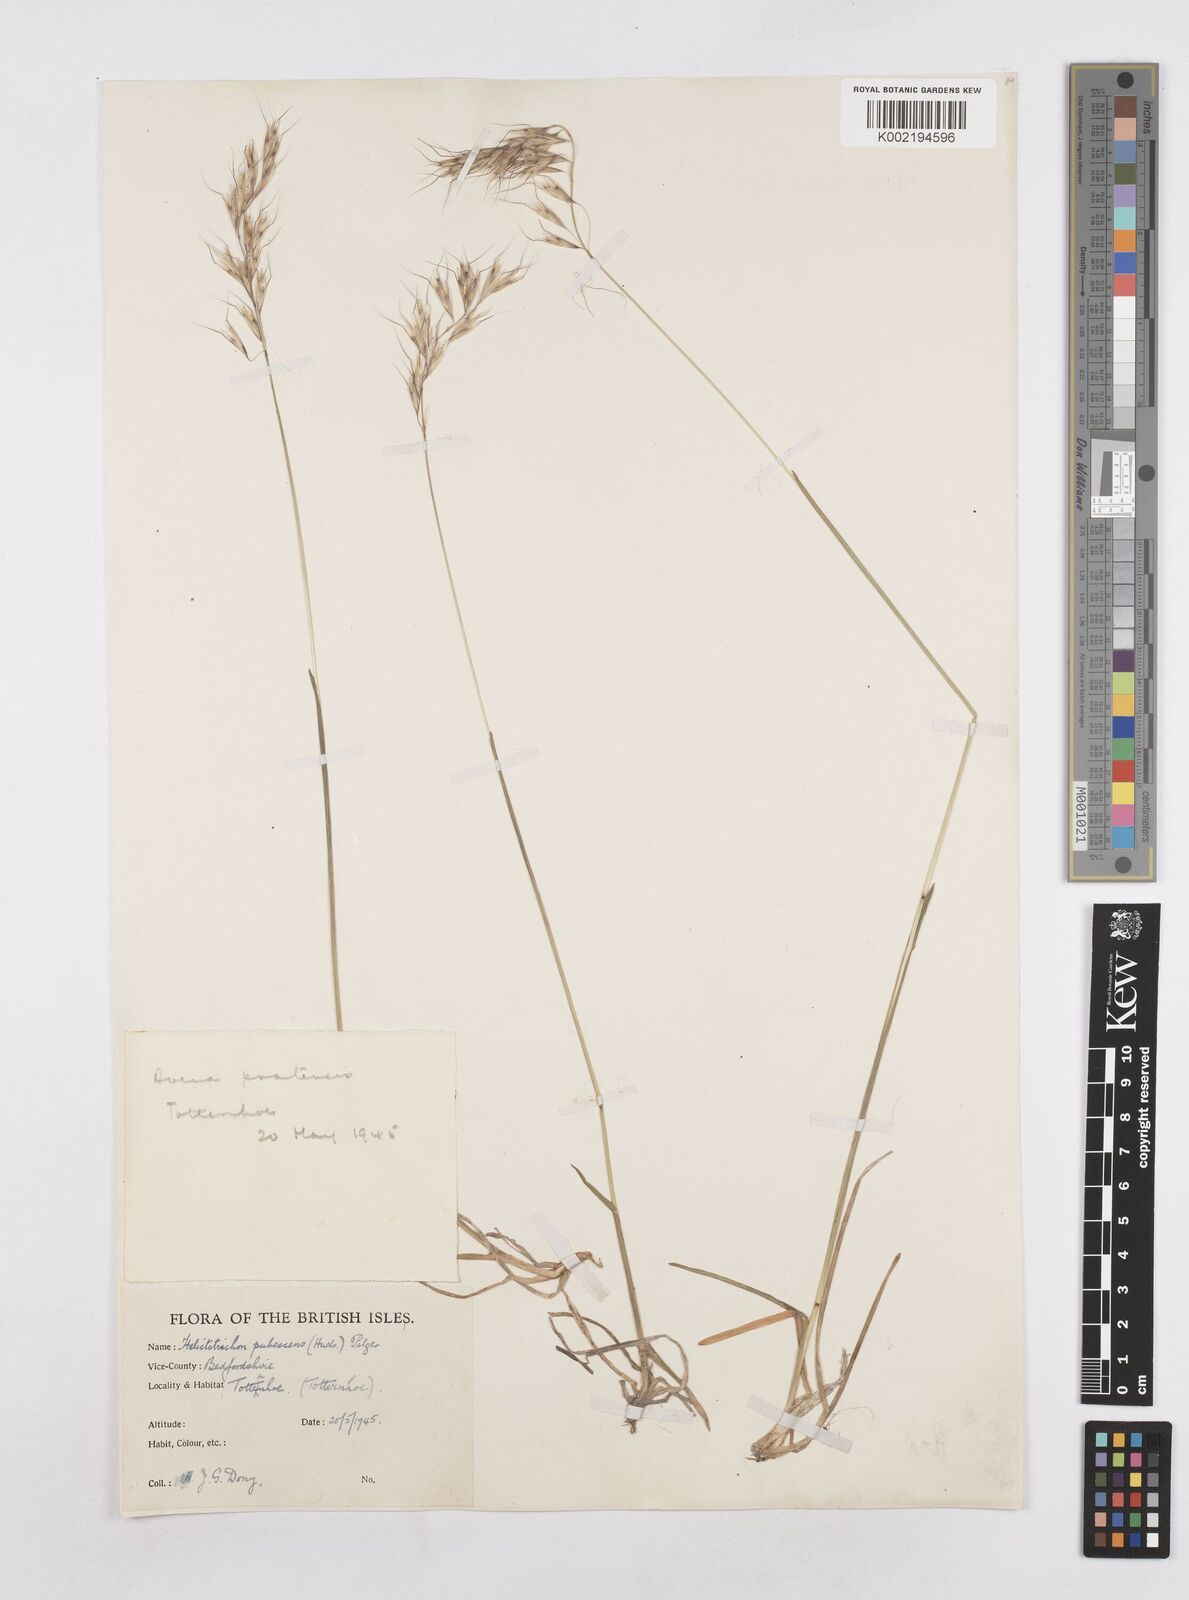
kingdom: Plantae
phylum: Tracheophyta
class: Liliopsida
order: Poales
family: Poaceae
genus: Avenula
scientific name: Avenula pubescens
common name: Downy alpine oatgrass
